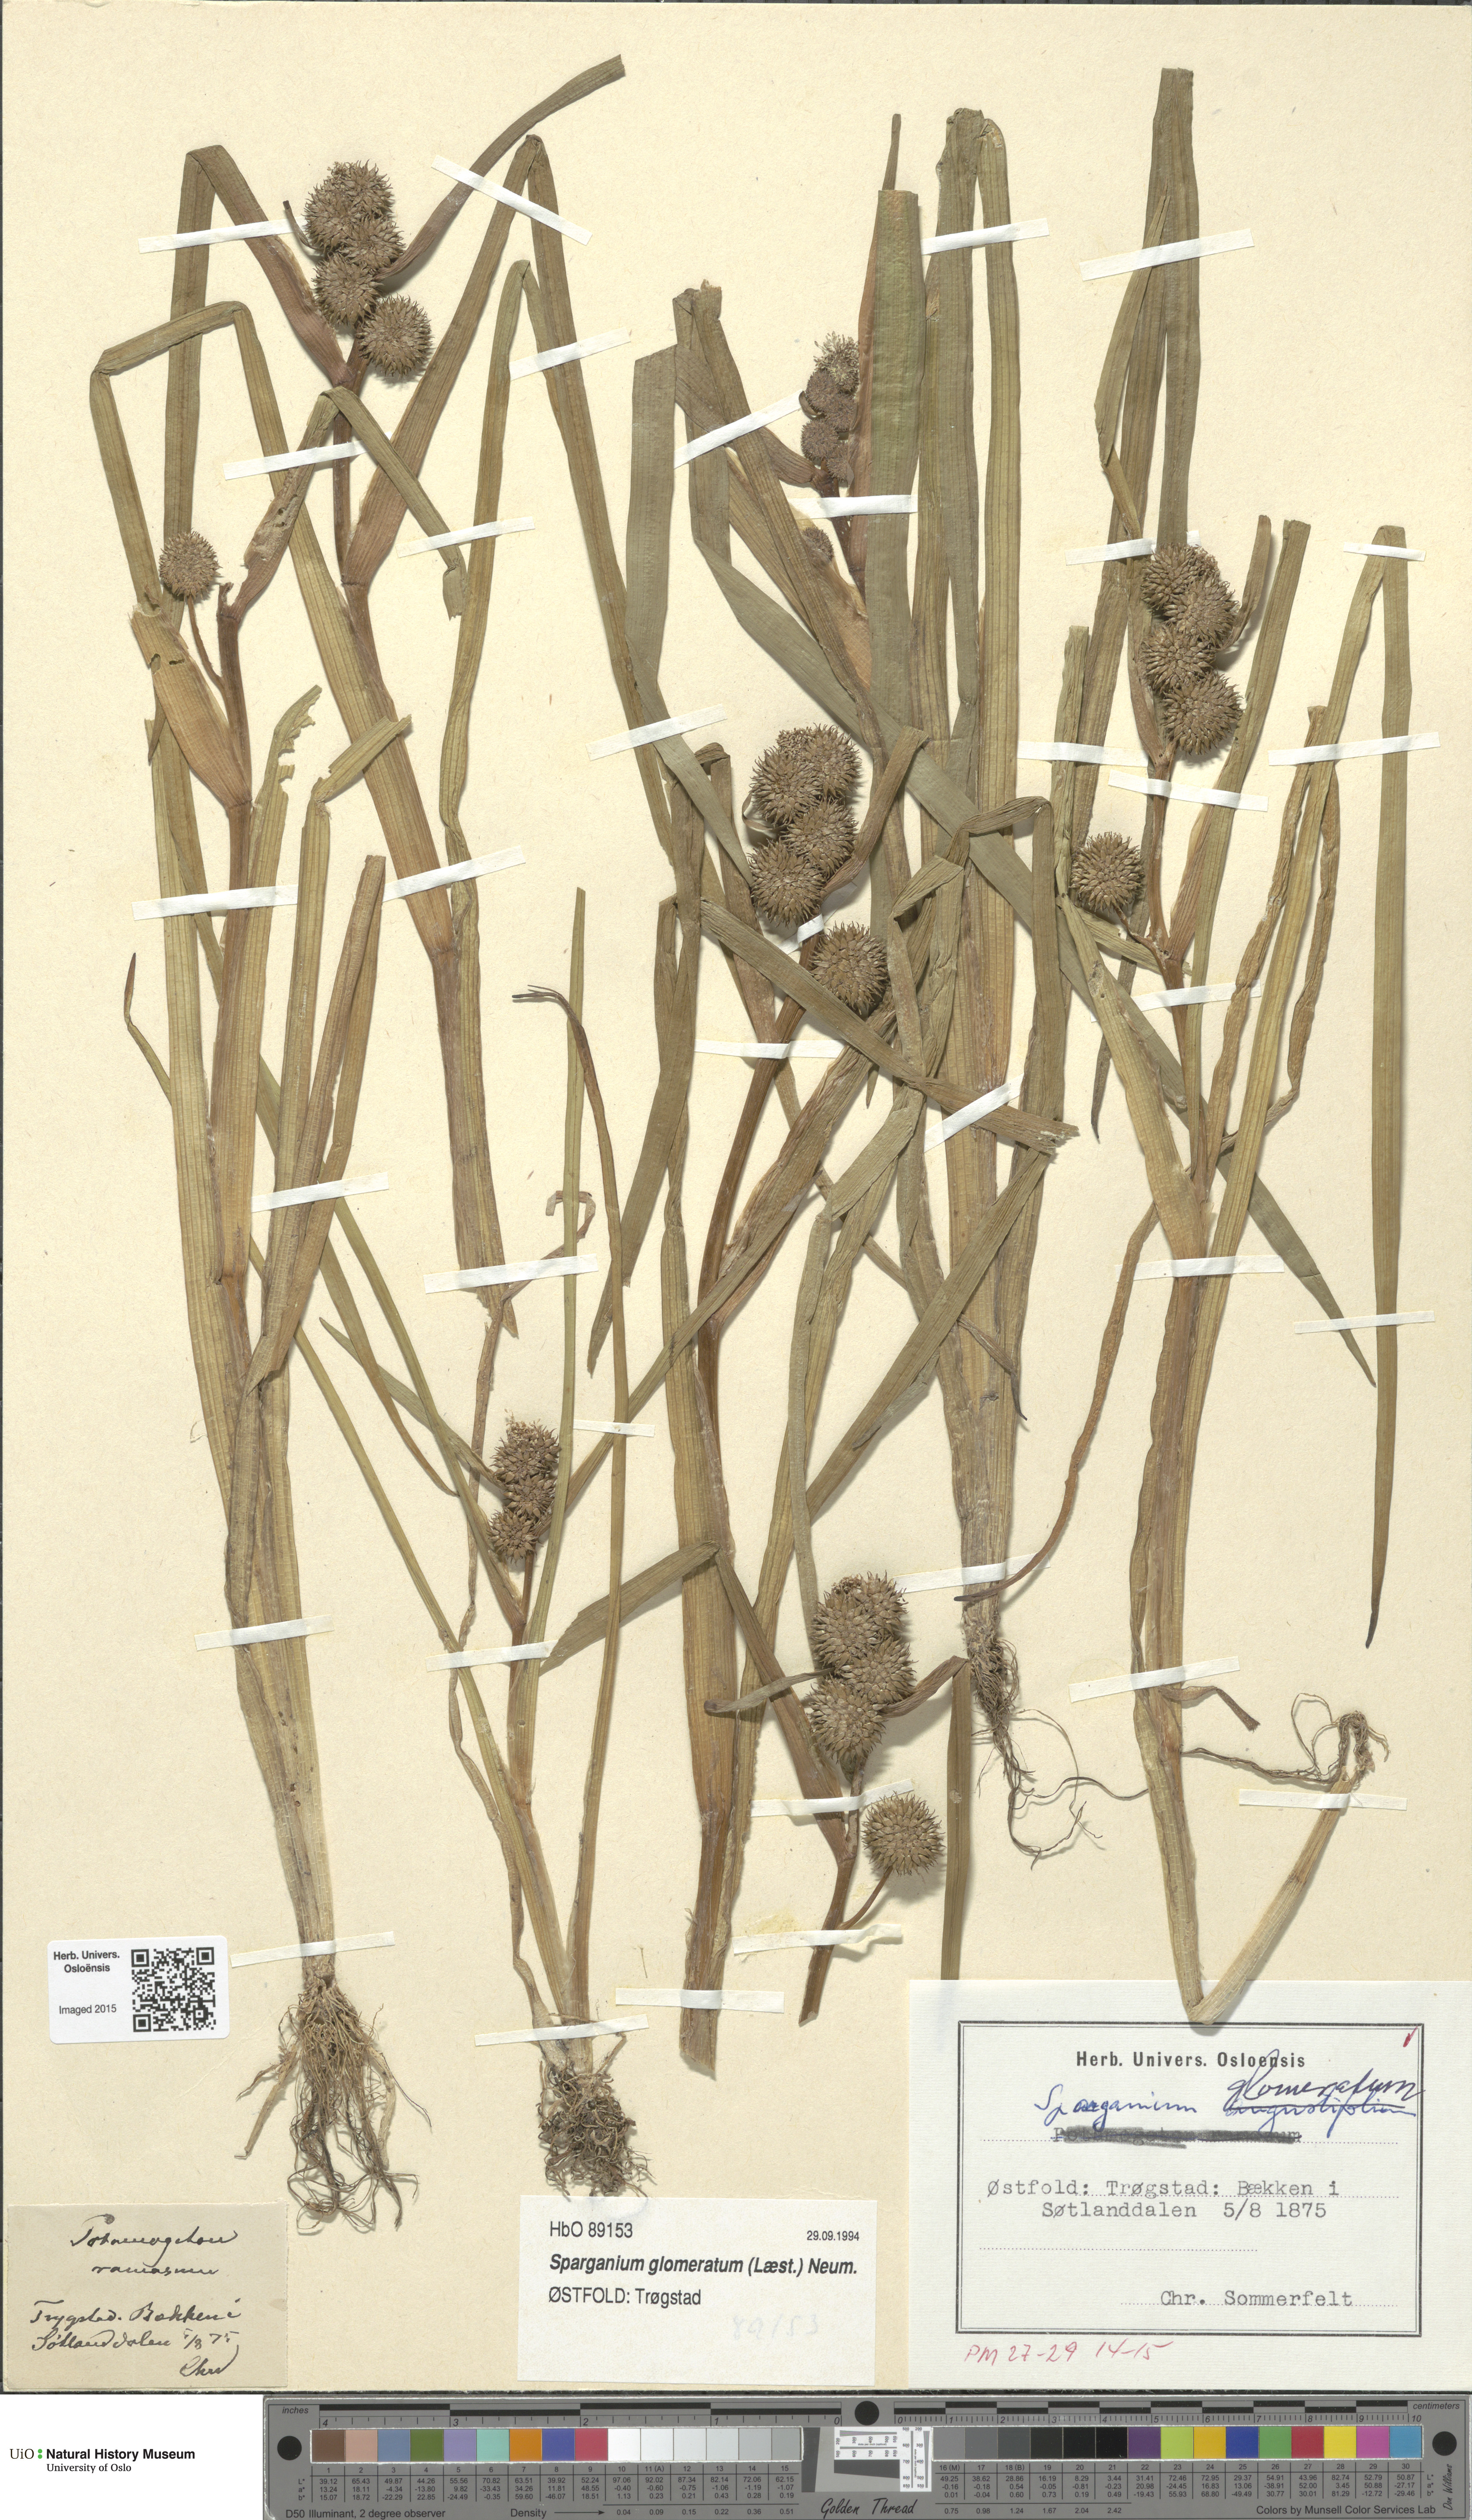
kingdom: Plantae
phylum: Tracheophyta
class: Liliopsida
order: Poales
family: Typhaceae
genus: Sparganium
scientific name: Sparganium glomeratum
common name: Clustered burreed
